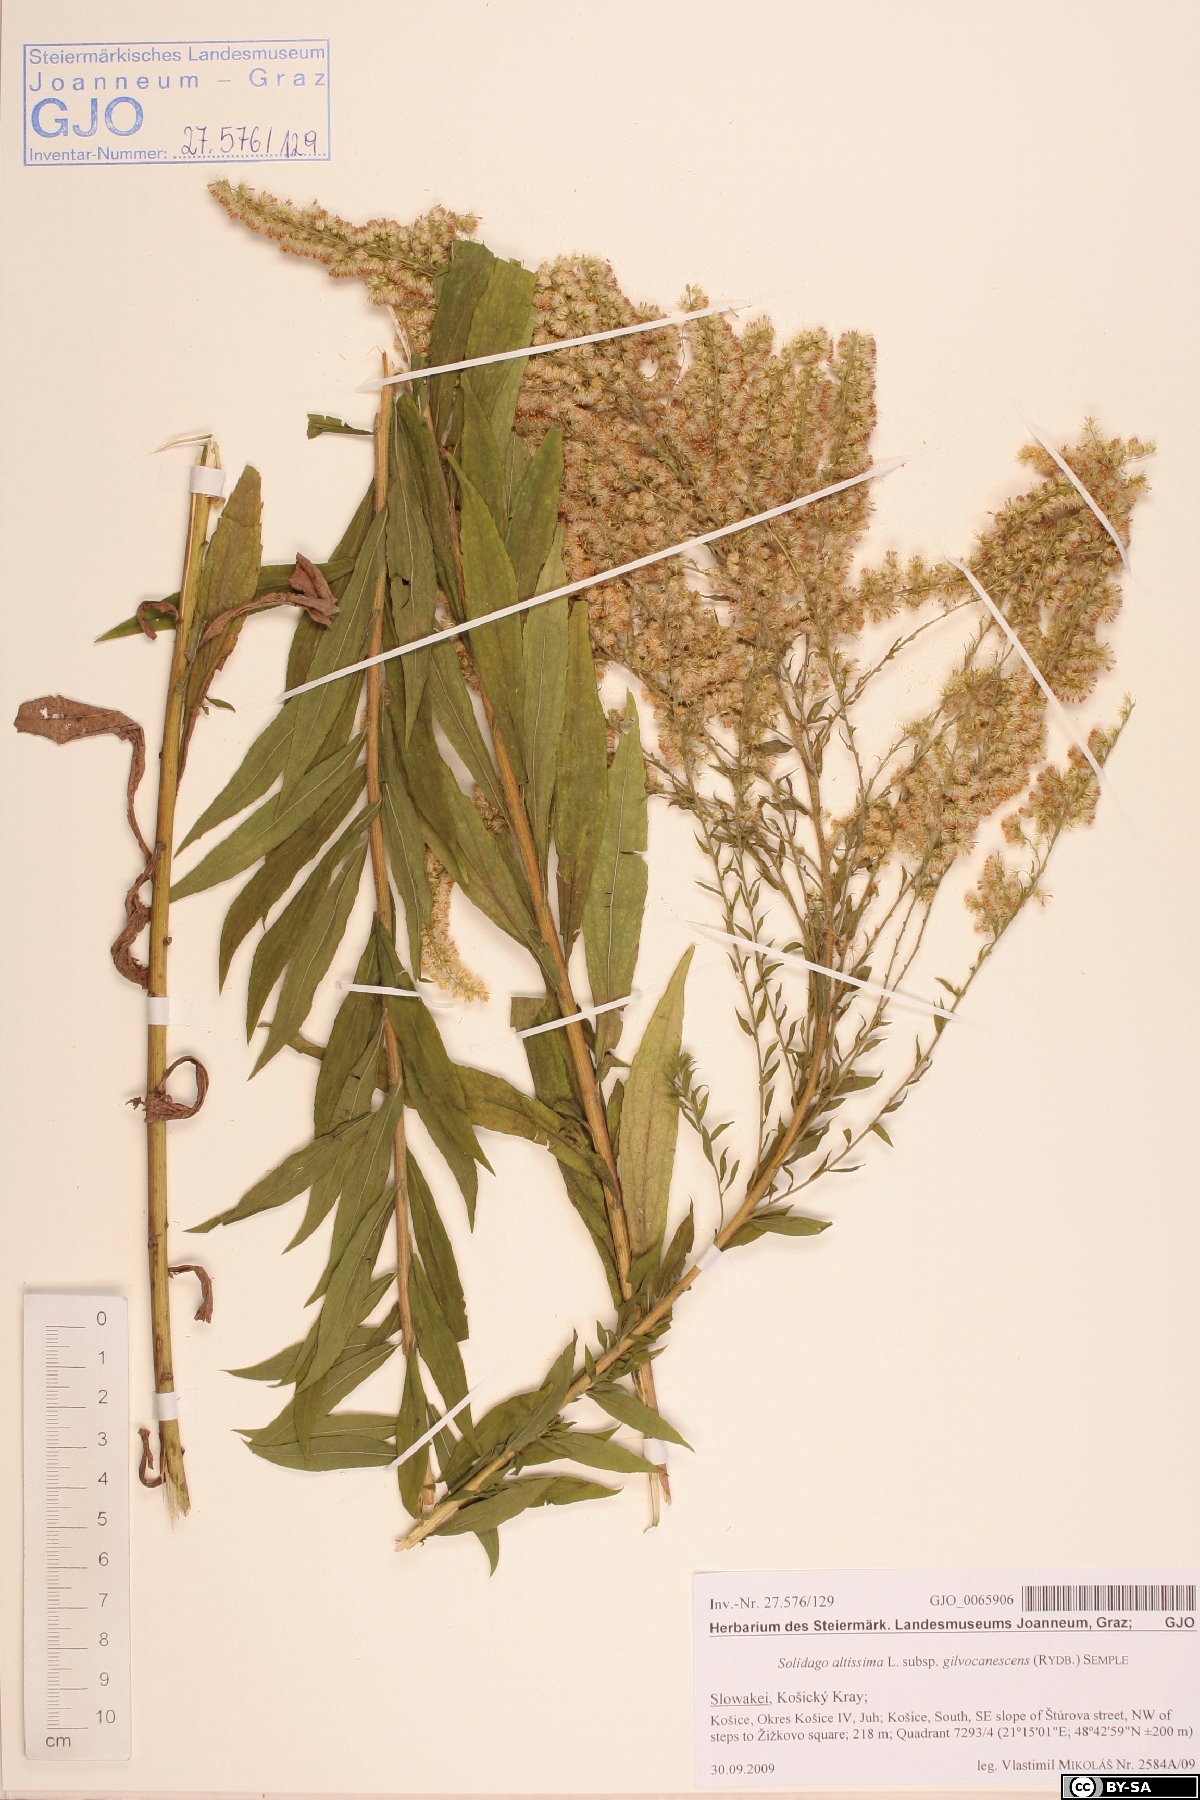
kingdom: Plantae
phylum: Tracheophyta
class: Magnoliopsida
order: Asterales
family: Asteraceae
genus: Solidago
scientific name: Solidago altissima
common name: Late goldenrod
